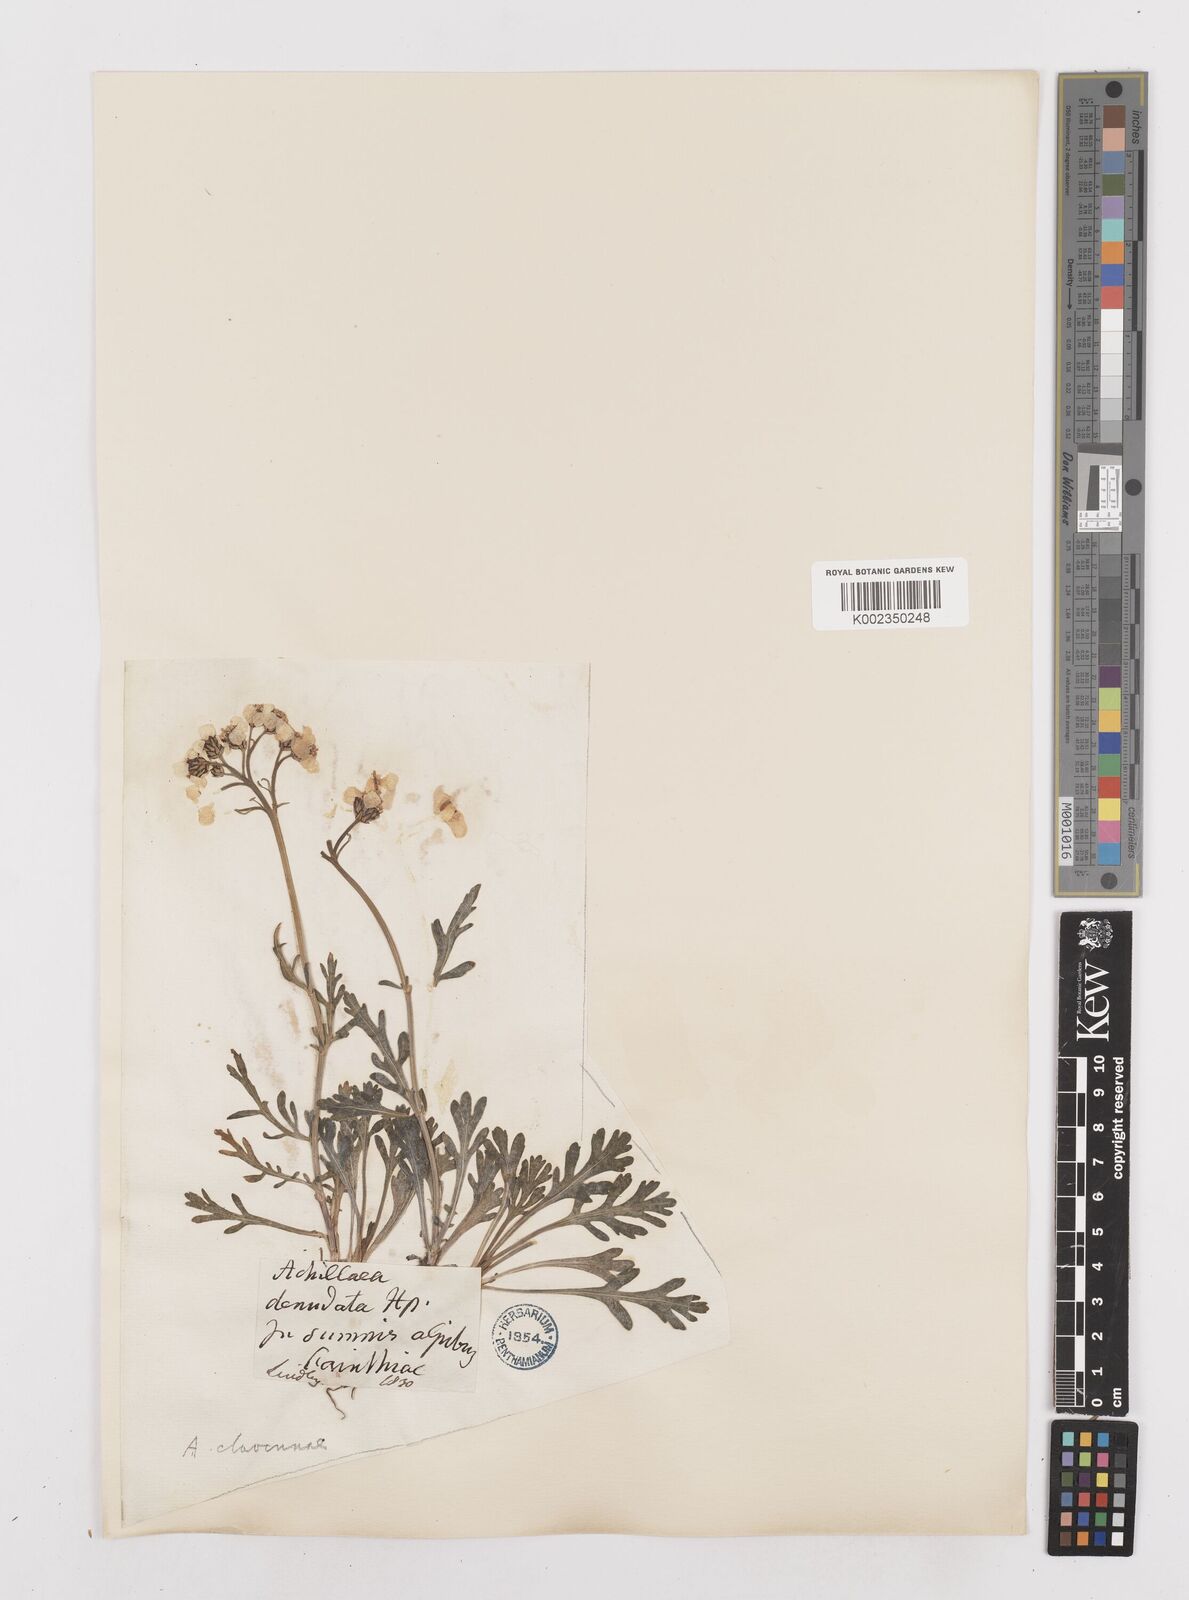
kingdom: Plantae
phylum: Tracheophyta
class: Magnoliopsida
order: Asterales
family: Asteraceae
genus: Achillea
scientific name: Achillea clavennae
